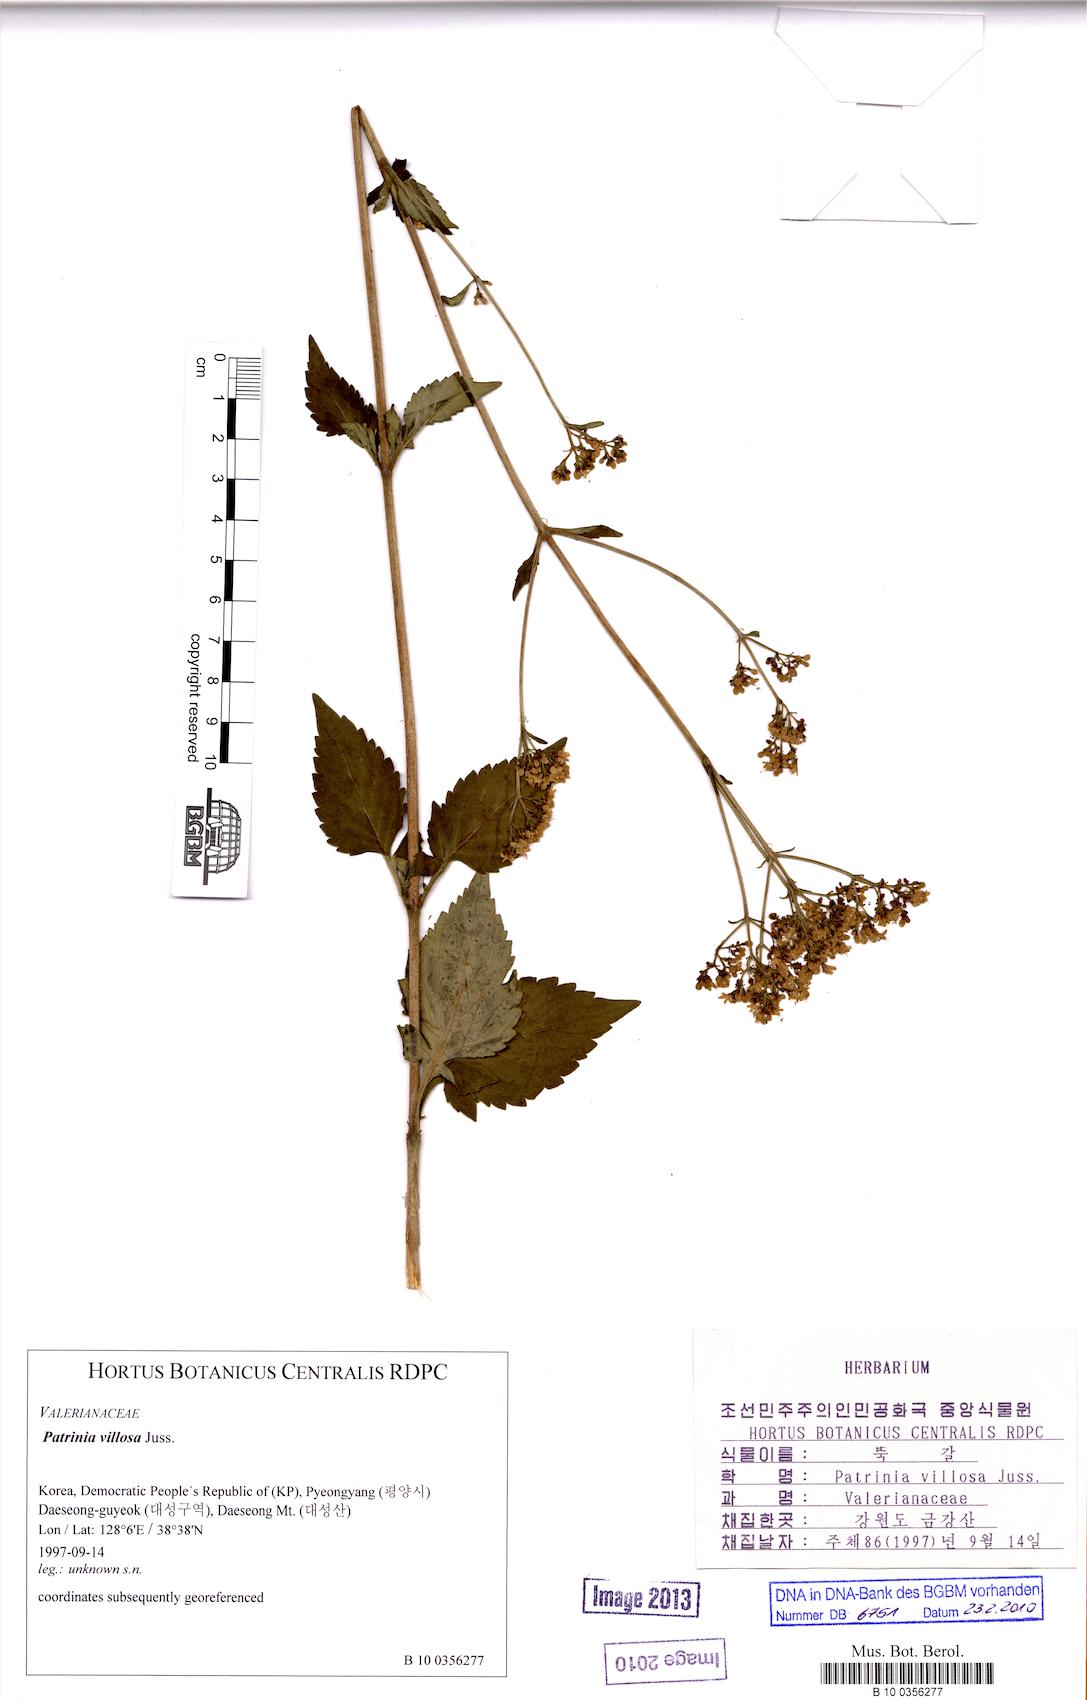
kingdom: Plantae
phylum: Tracheophyta
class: Magnoliopsida
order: Dipsacales
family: Caprifoliaceae
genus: Patrinia
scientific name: Patrinia villosa
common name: Patrinia
